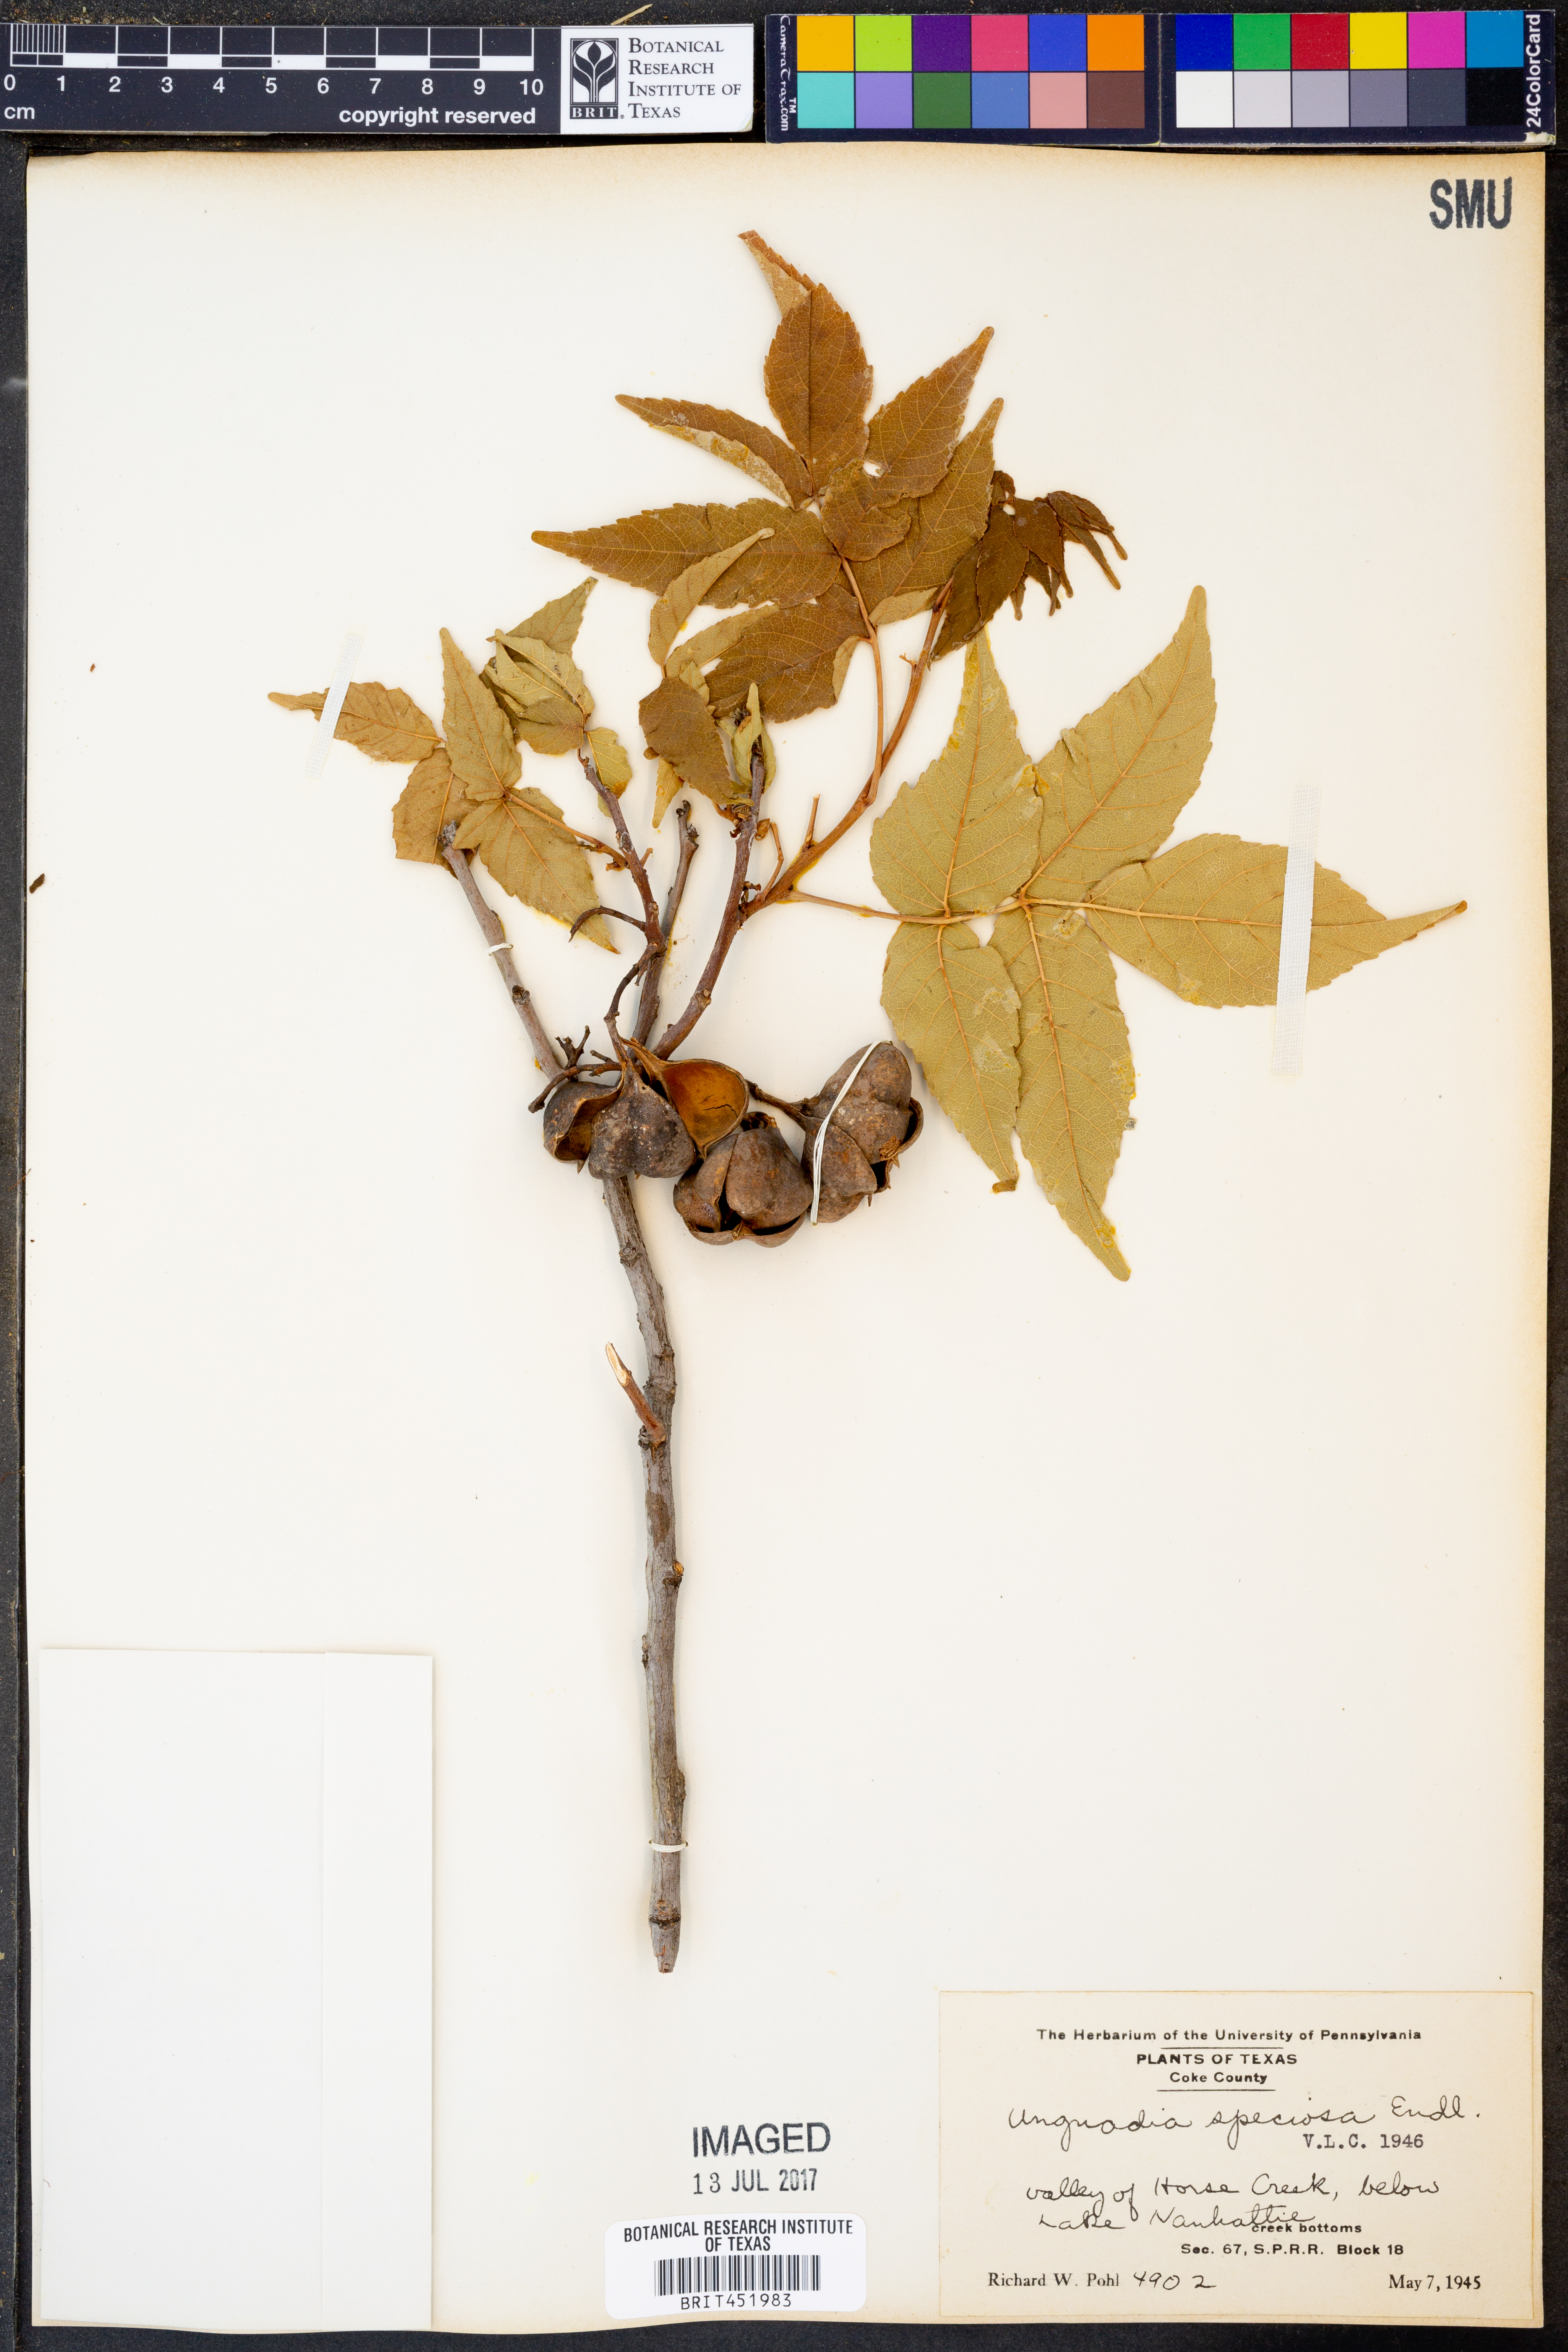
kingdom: Plantae
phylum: Tracheophyta
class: Magnoliopsida
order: Sapindales
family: Sapindaceae
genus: Ungnadia
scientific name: Ungnadia speciosa
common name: Texas-buckeye
